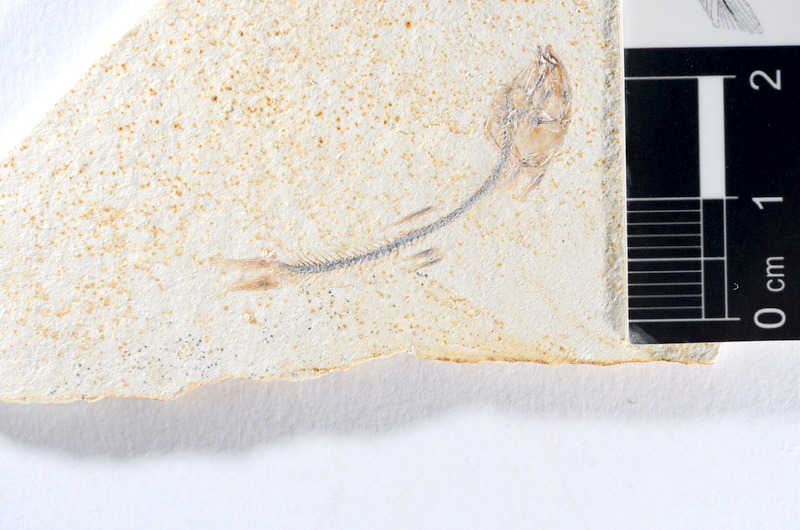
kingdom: Animalia
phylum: Chordata
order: Salmoniformes
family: Orthogonikleithridae
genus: Orthogonikleithrus
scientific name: Orthogonikleithrus hoelli
